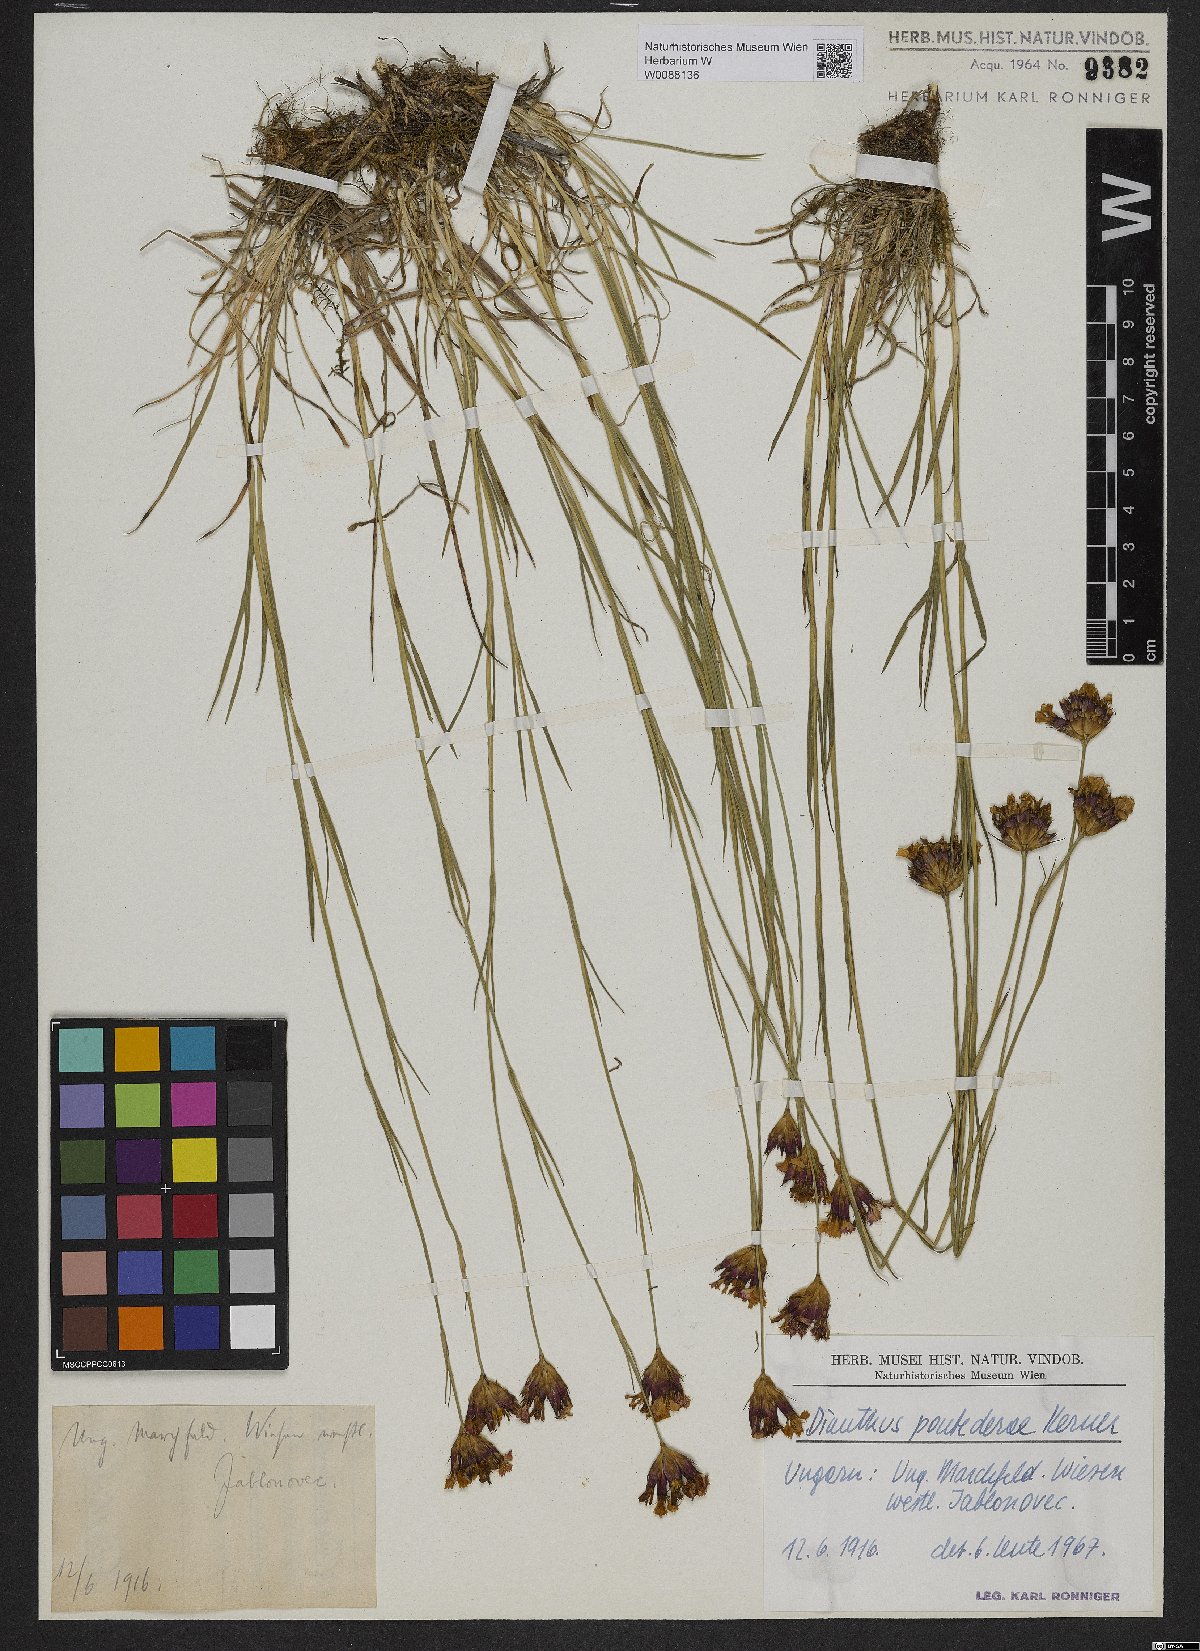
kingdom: Plantae
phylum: Tracheophyta
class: Magnoliopsida
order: Caryophyllales
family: Caryophyllaceae
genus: Dianthus
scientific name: Dianthus pontederae
